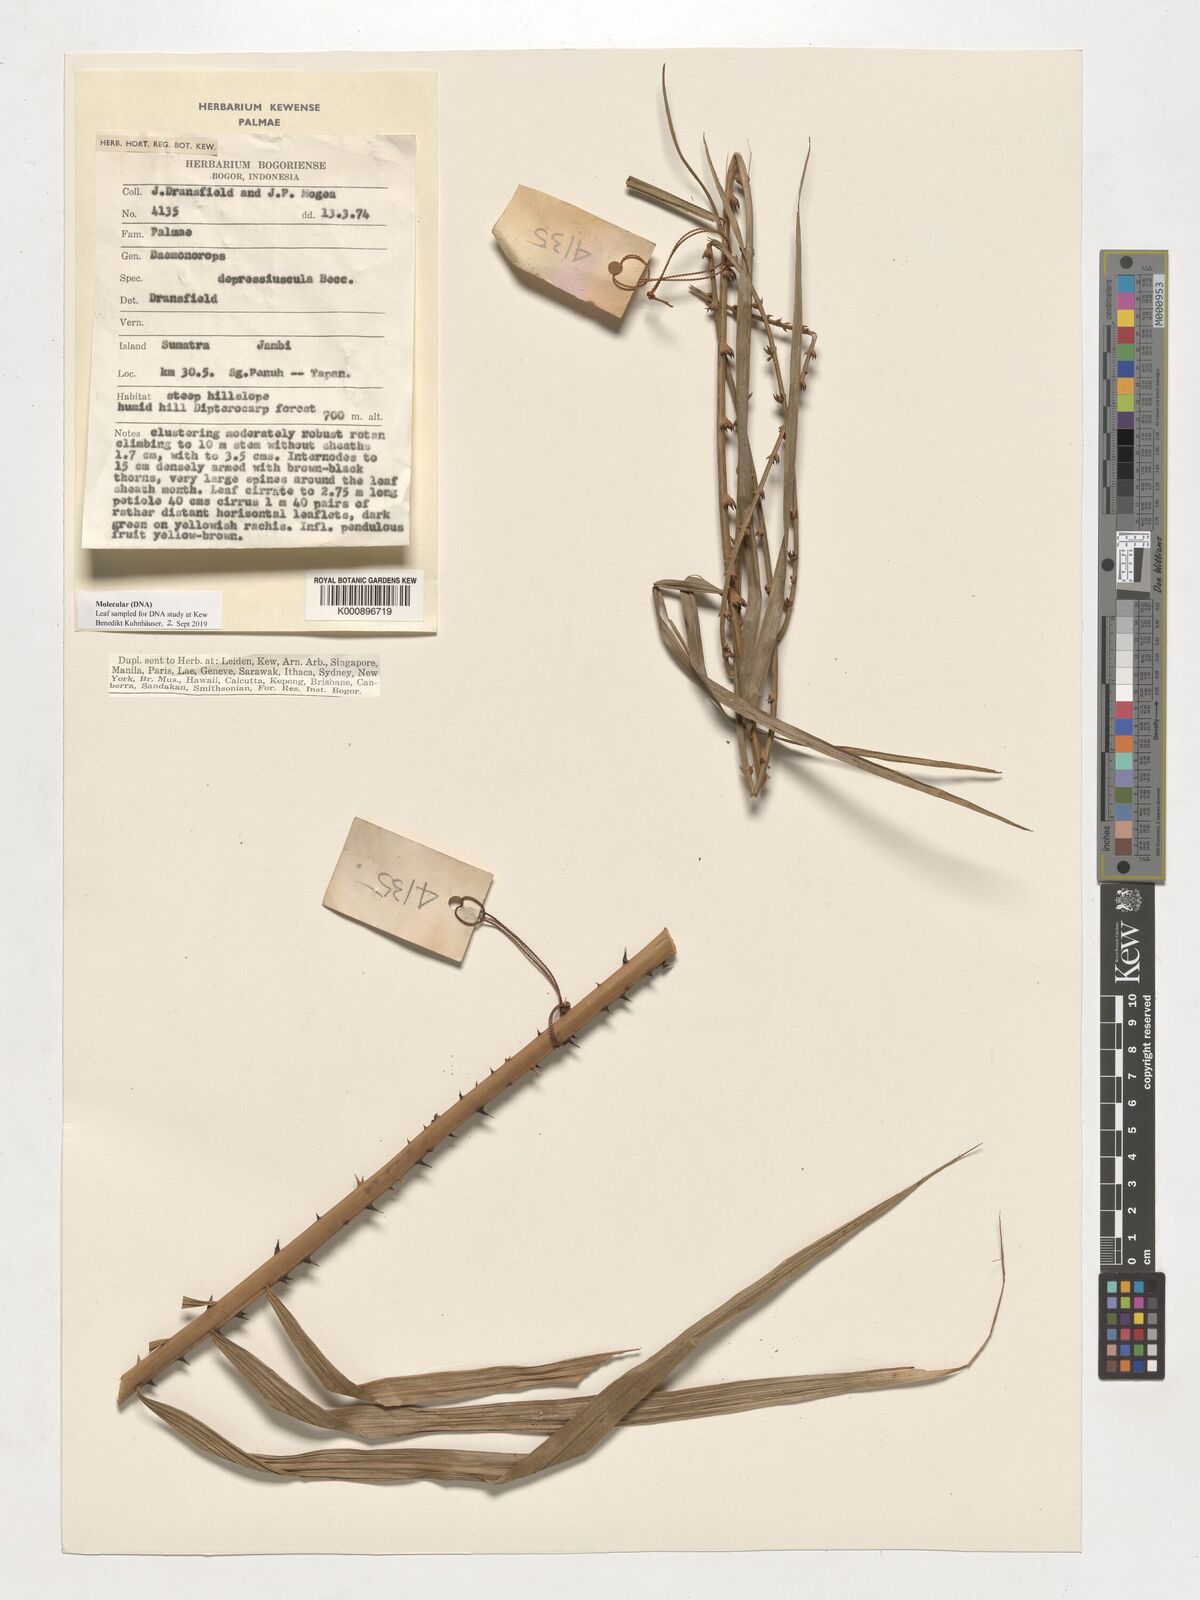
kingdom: Plantae
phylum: Tracheophyta
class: Liliopsida
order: Arecales
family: Arecaceae
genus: Daemonorops
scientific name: Daemonorops
